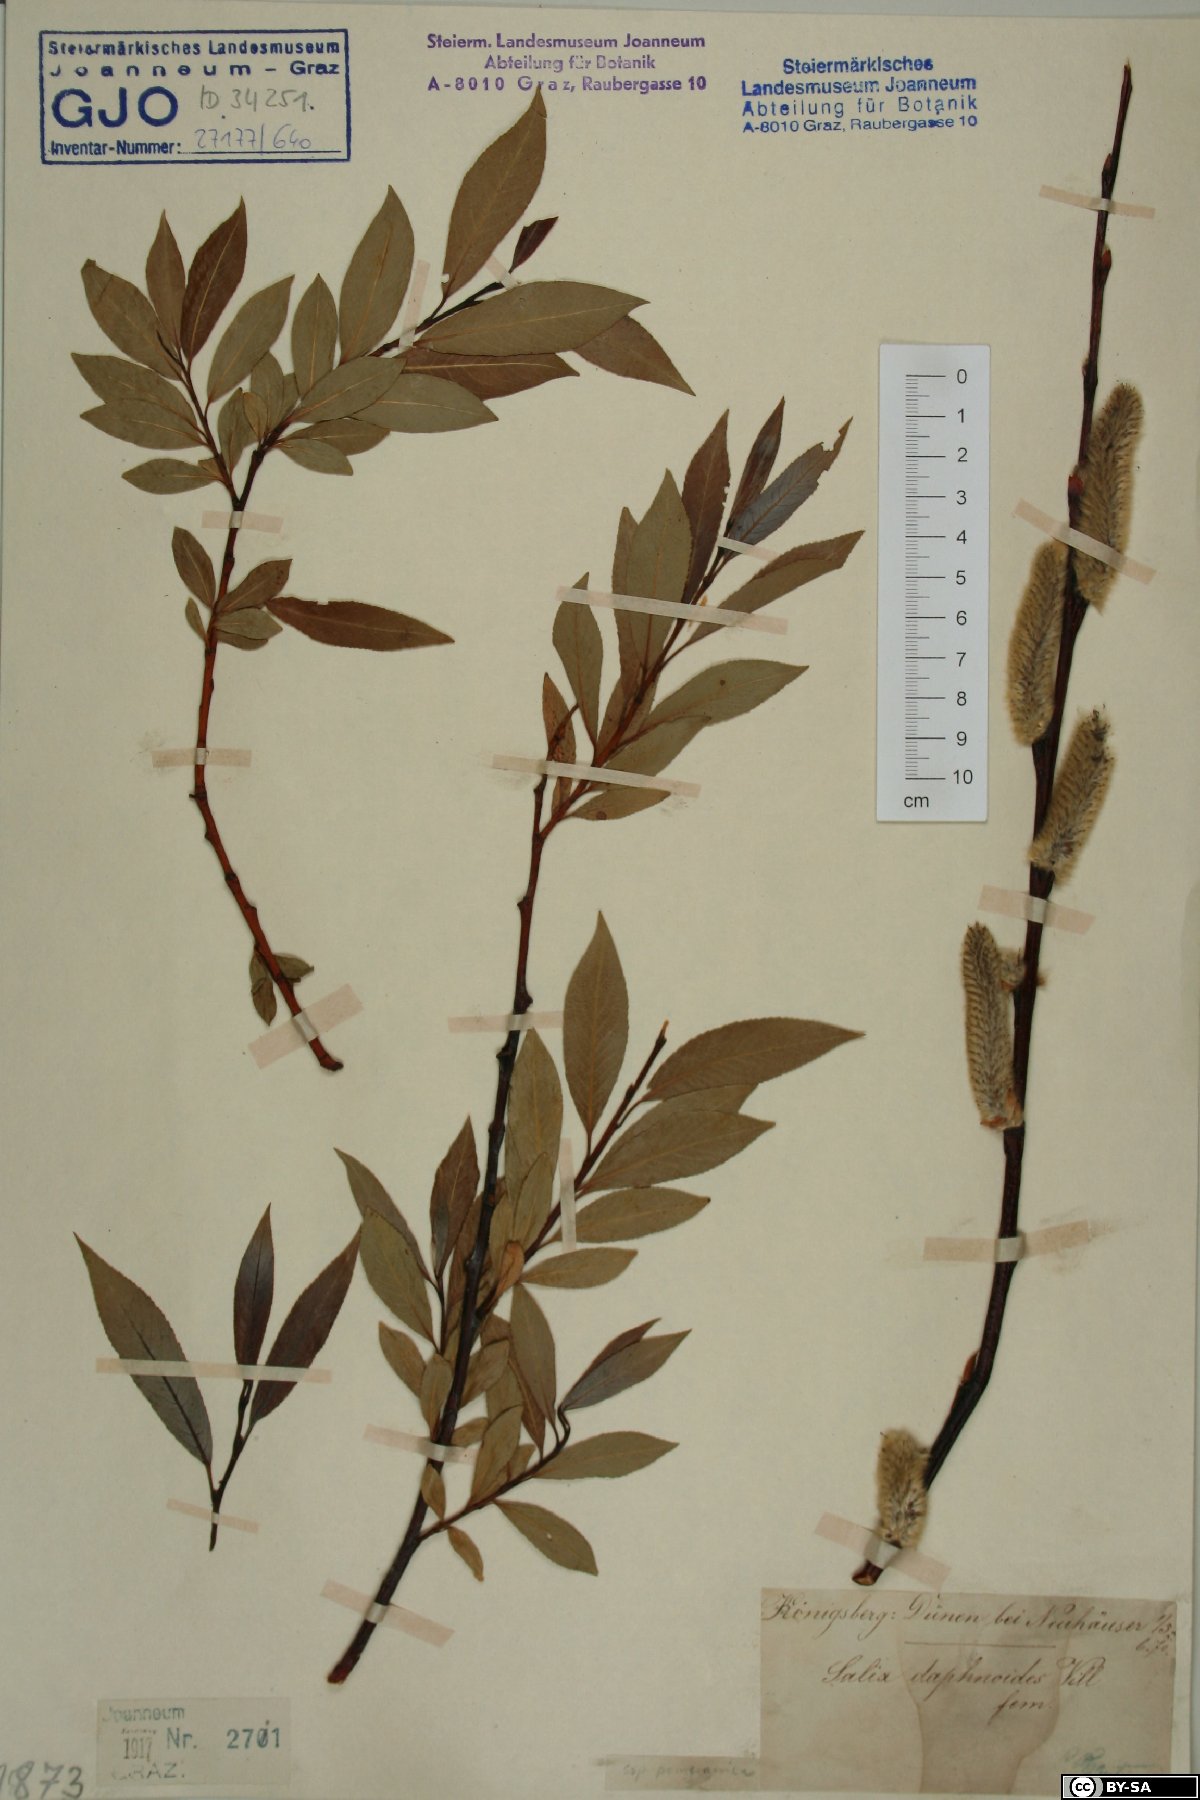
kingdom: Plantae
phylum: Tracheophyta
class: Magnoliopsida
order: Malpighiales
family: Salicaceae
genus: Salix
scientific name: Salix daphnoides
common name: European violet-willow
